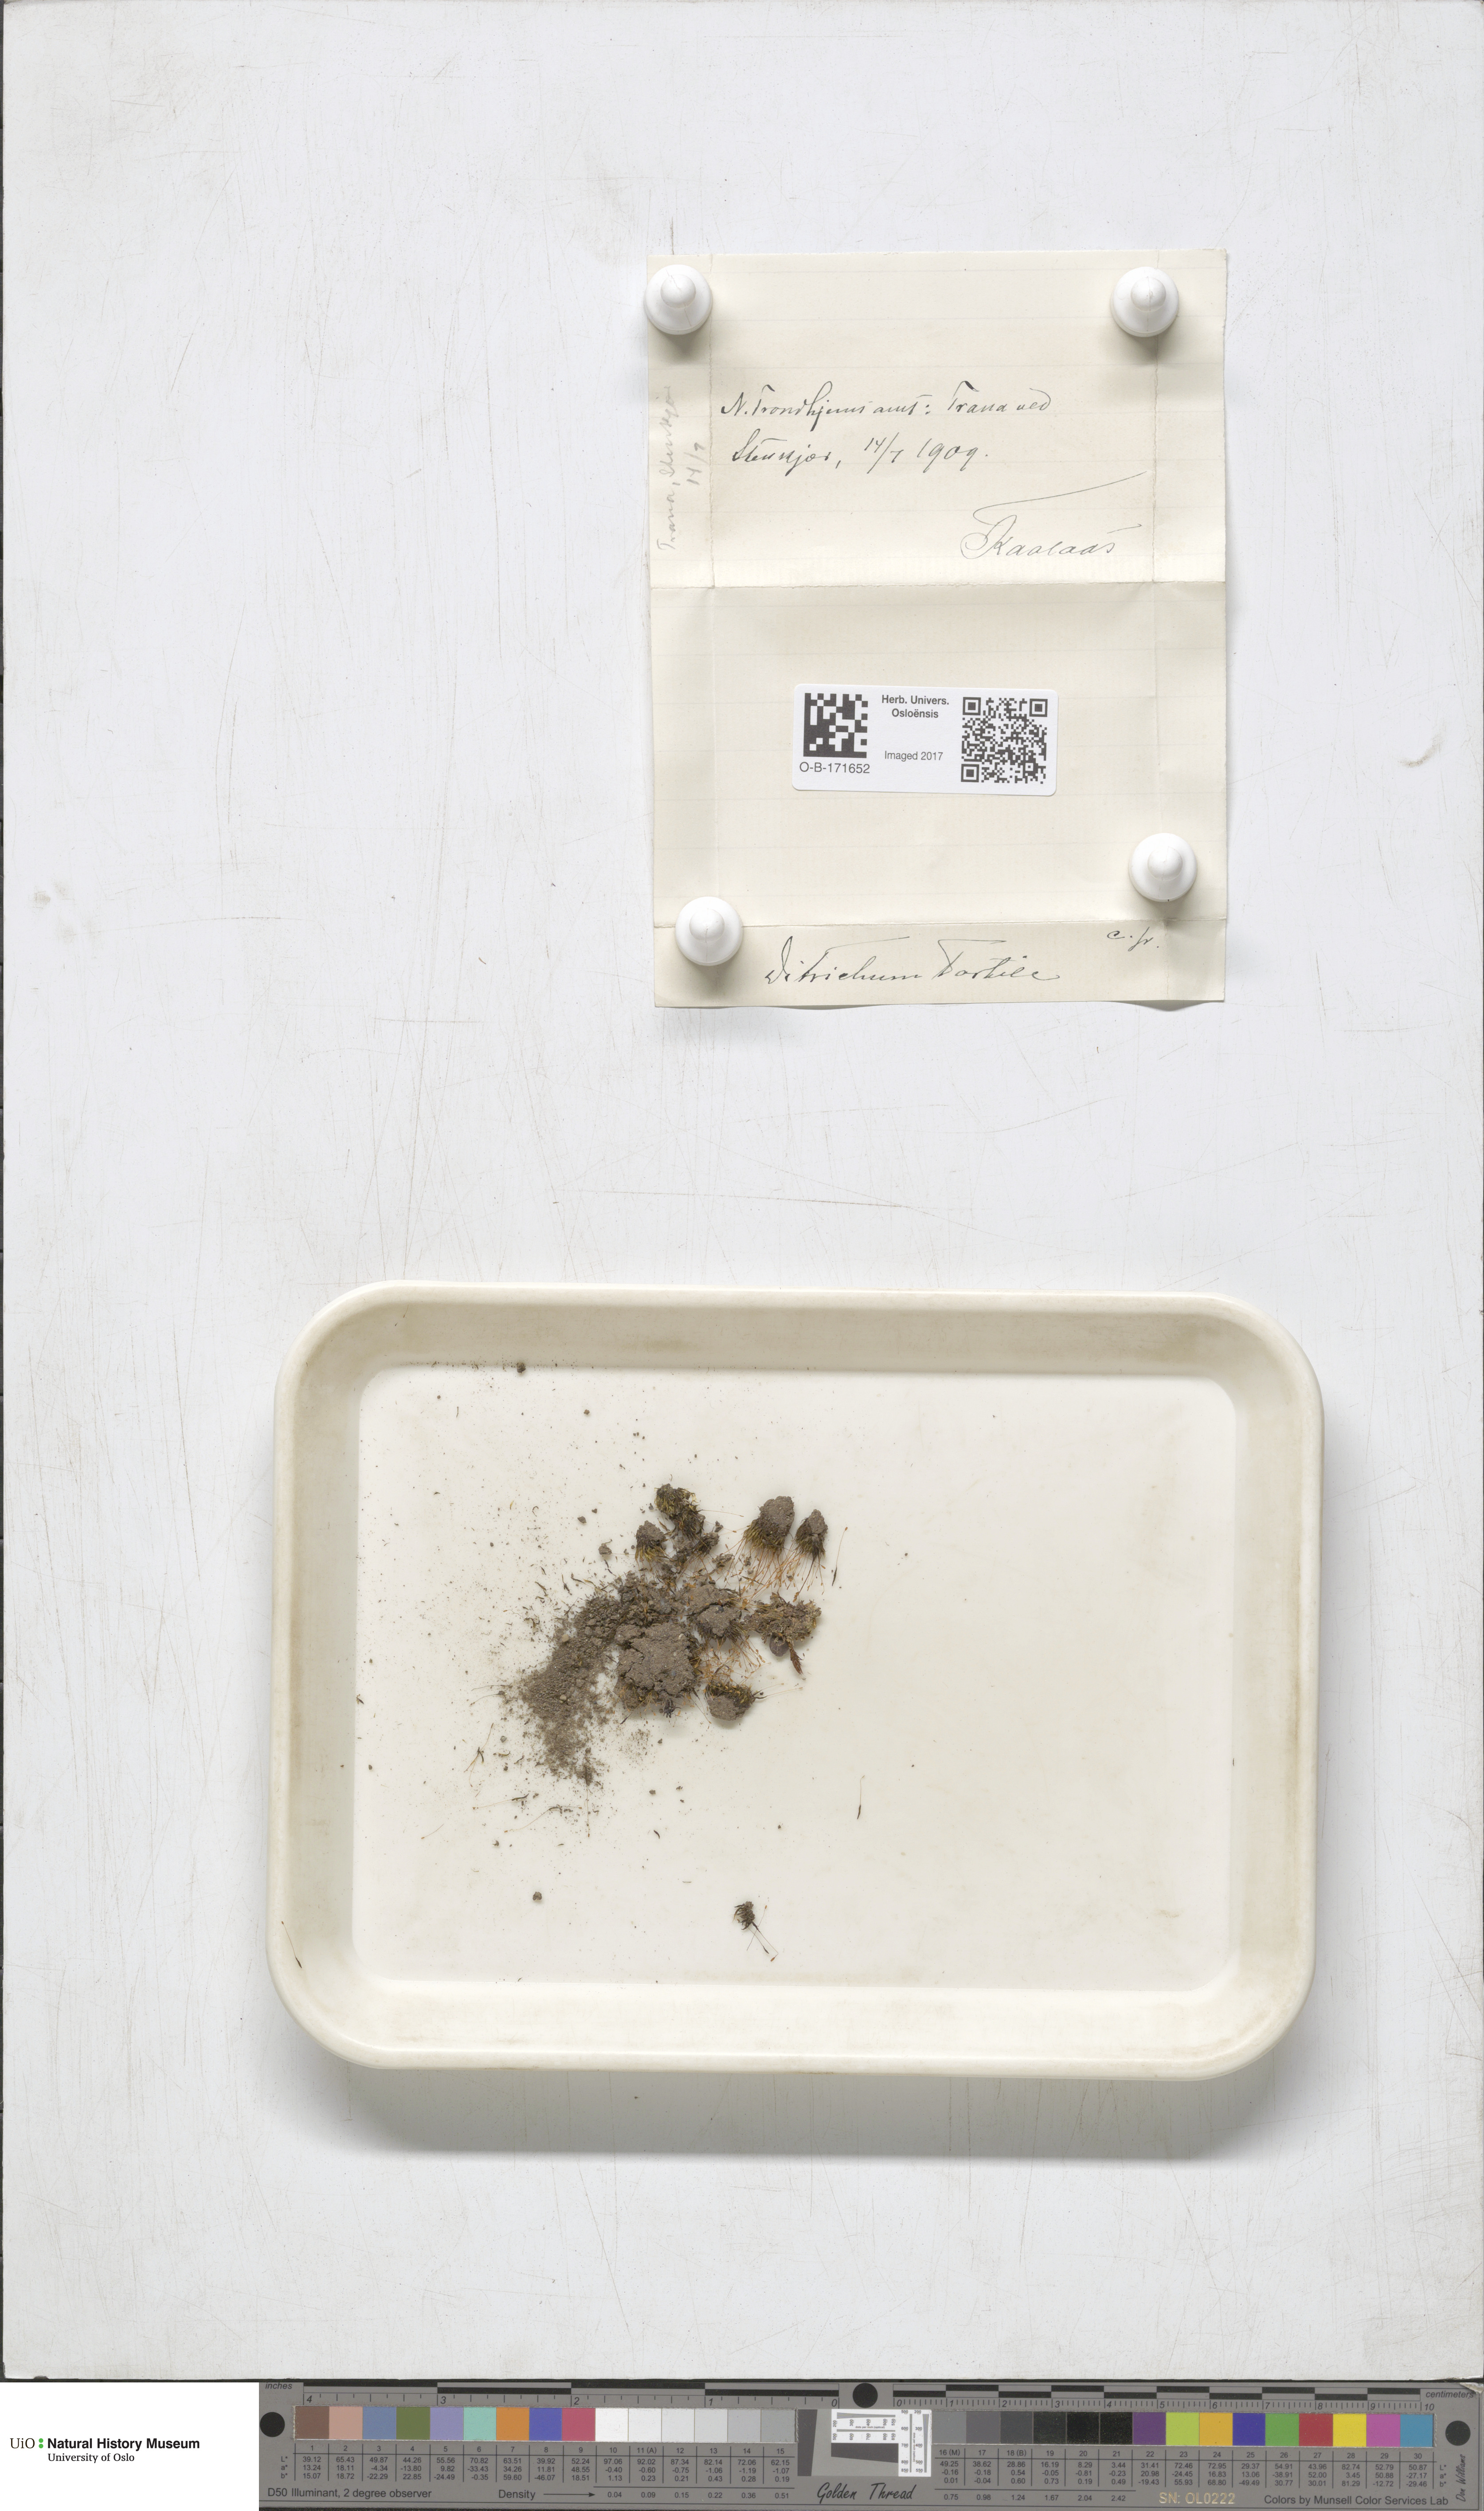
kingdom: Plantae
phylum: Bryophyta
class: Bryopsida
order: Dicranales
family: Ditrichaceae
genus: Ditrichum
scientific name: Ditrichum pusillum
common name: Brown cow-hair moss
